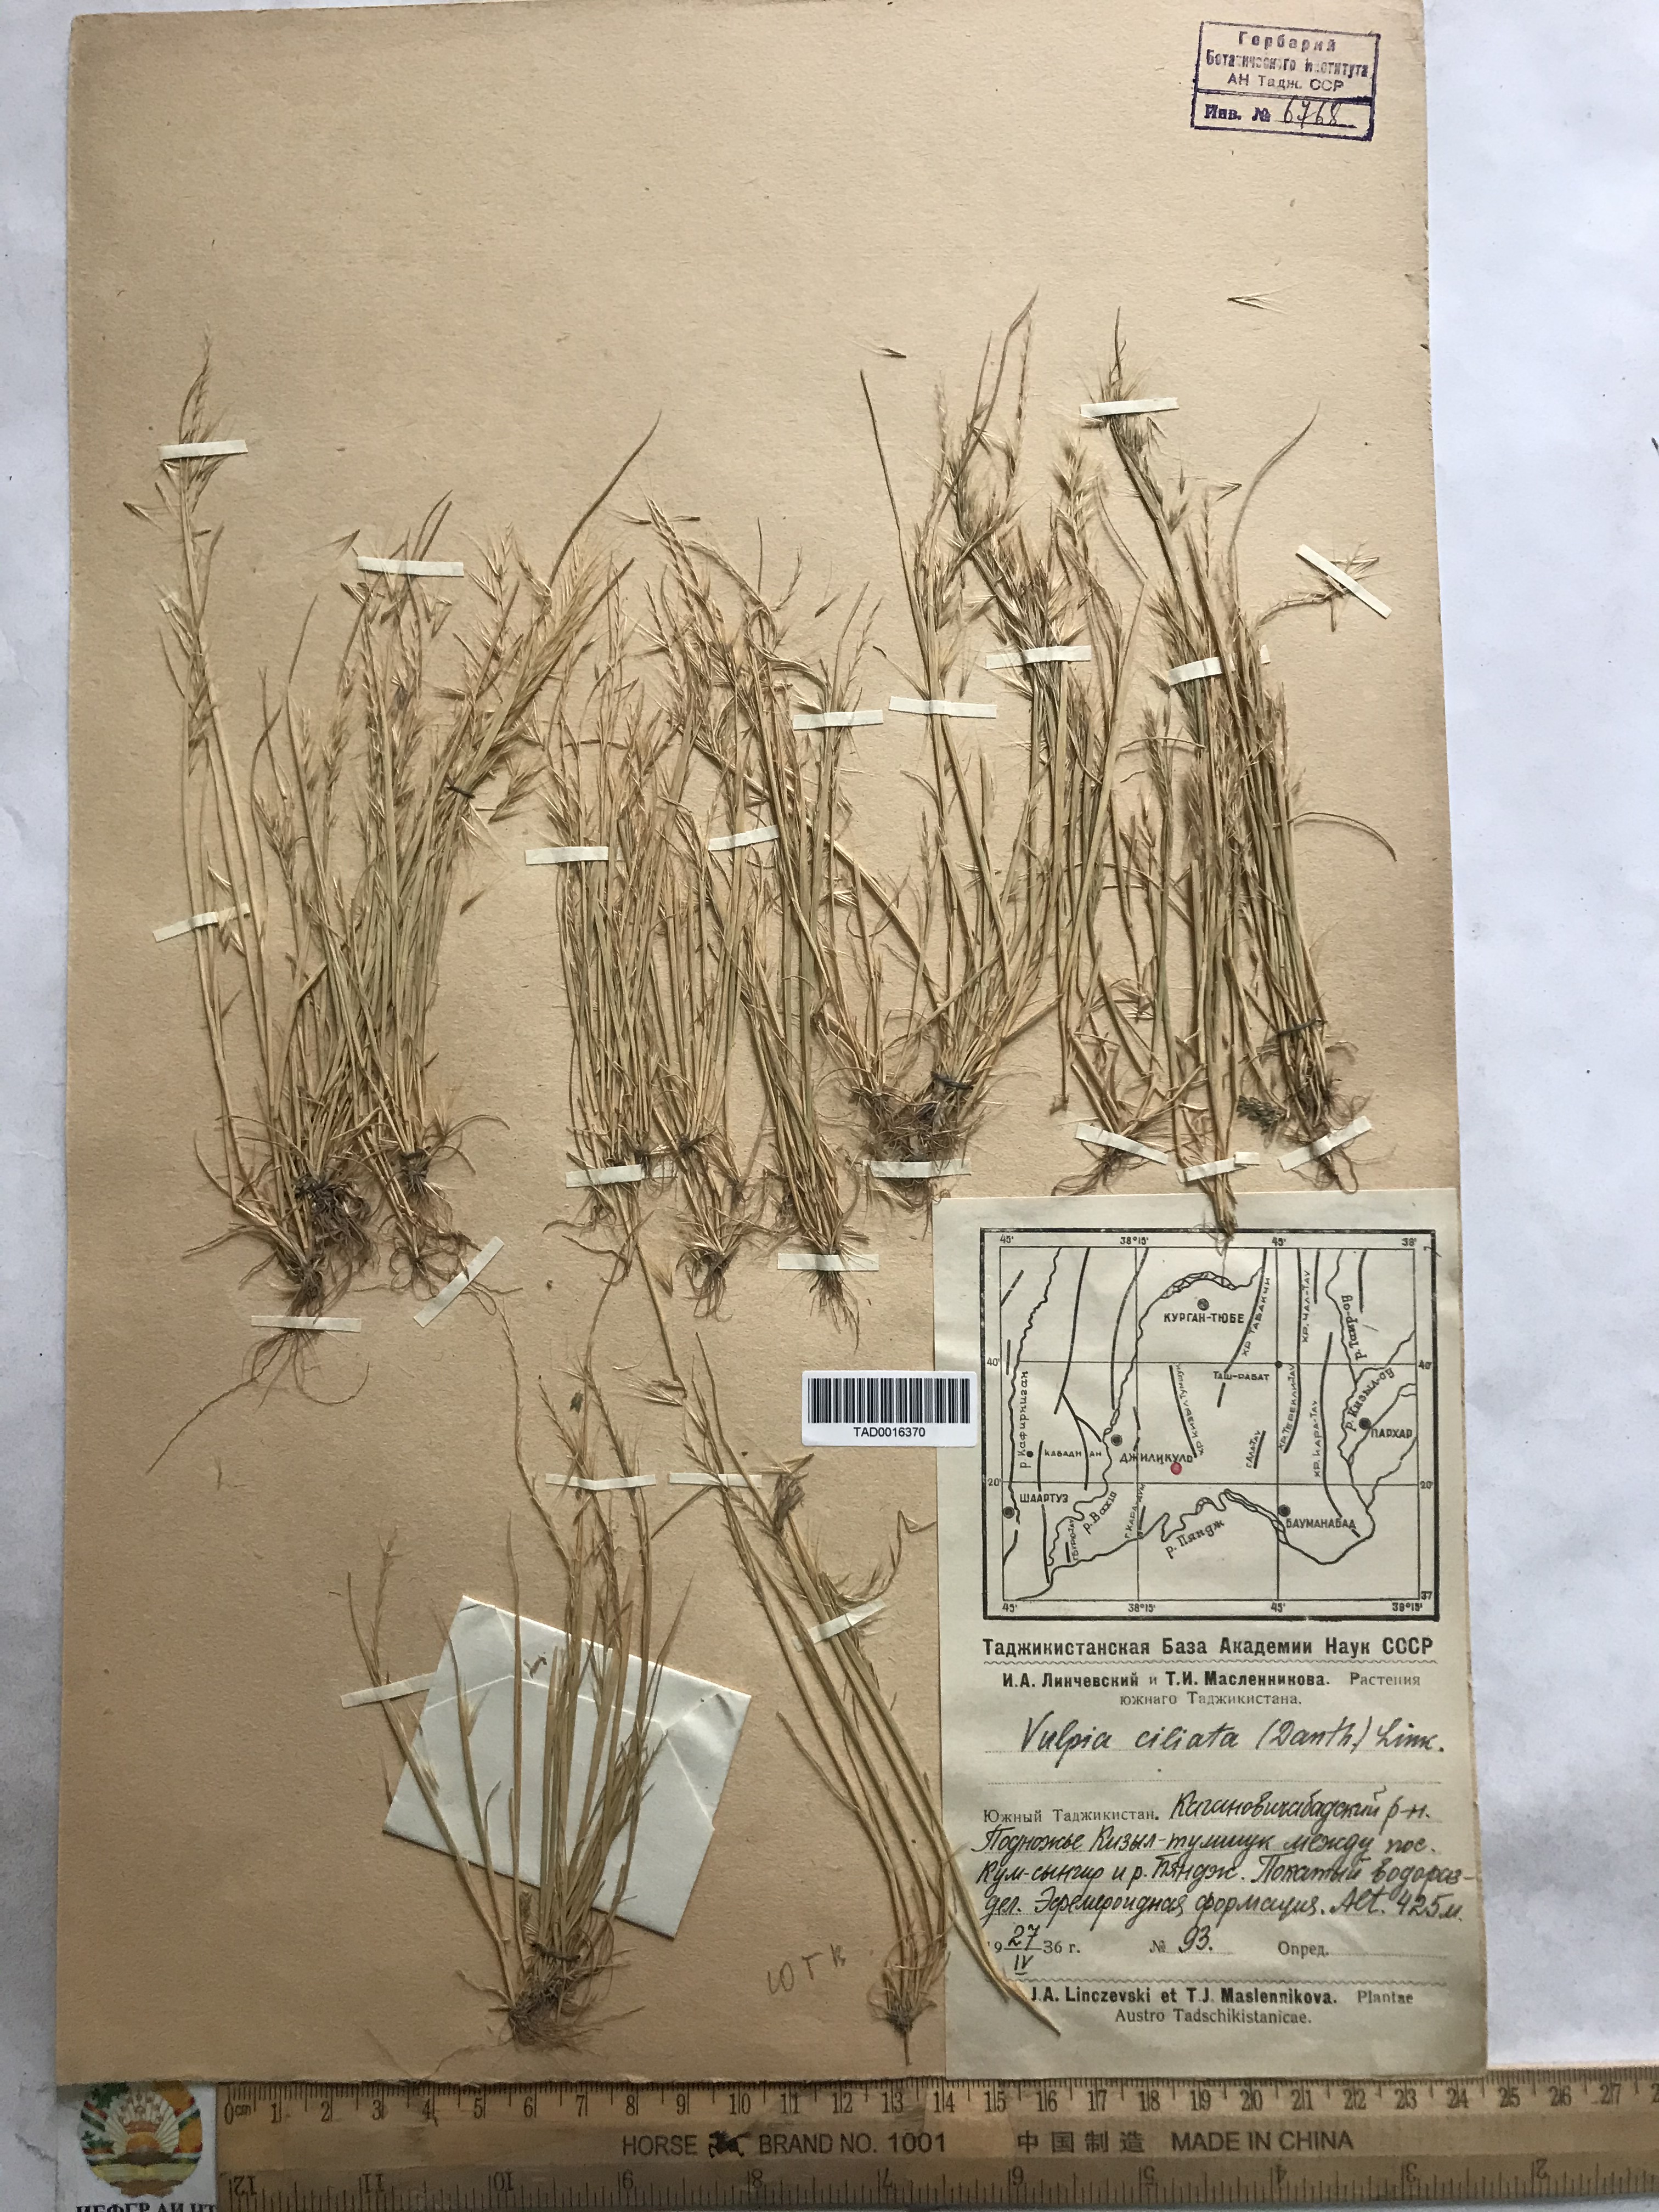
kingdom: Plantae
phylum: Tracheophyta
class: Liliopsida
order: Poales
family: Poaceae
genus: Festuca
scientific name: Festuca ambigua
